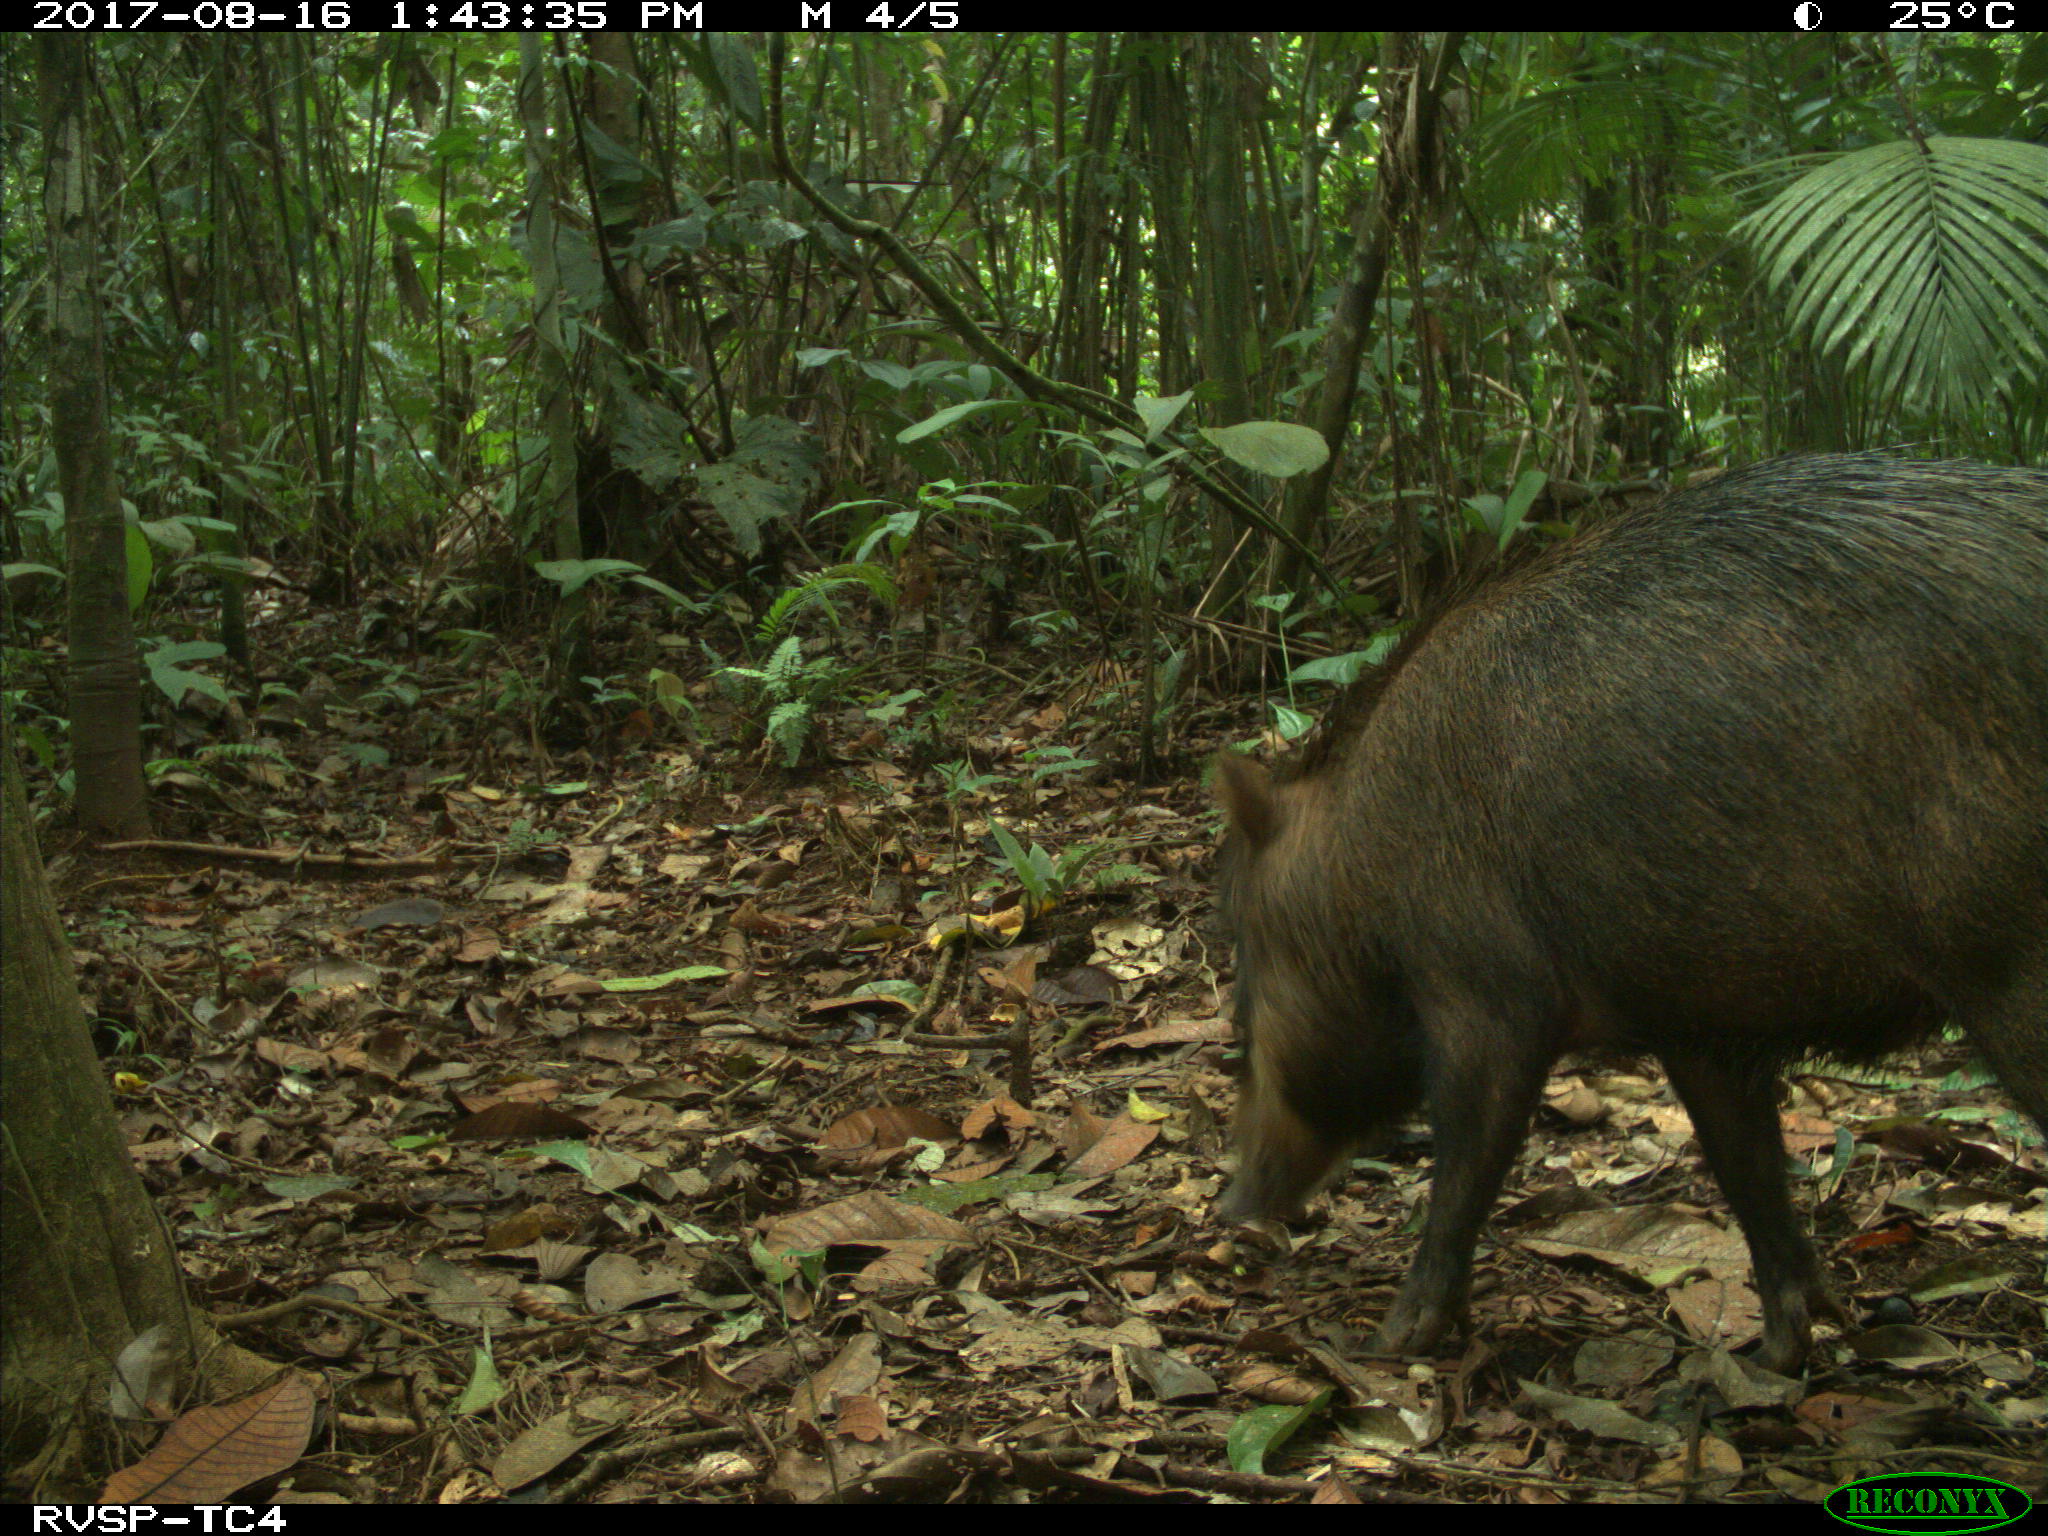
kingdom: Animalia
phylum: Chordata
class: Mammalia
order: Artiodactyla
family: Tayassuidae
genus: Tayassu
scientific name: Tayassu pecari
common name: White-lipped peccary
